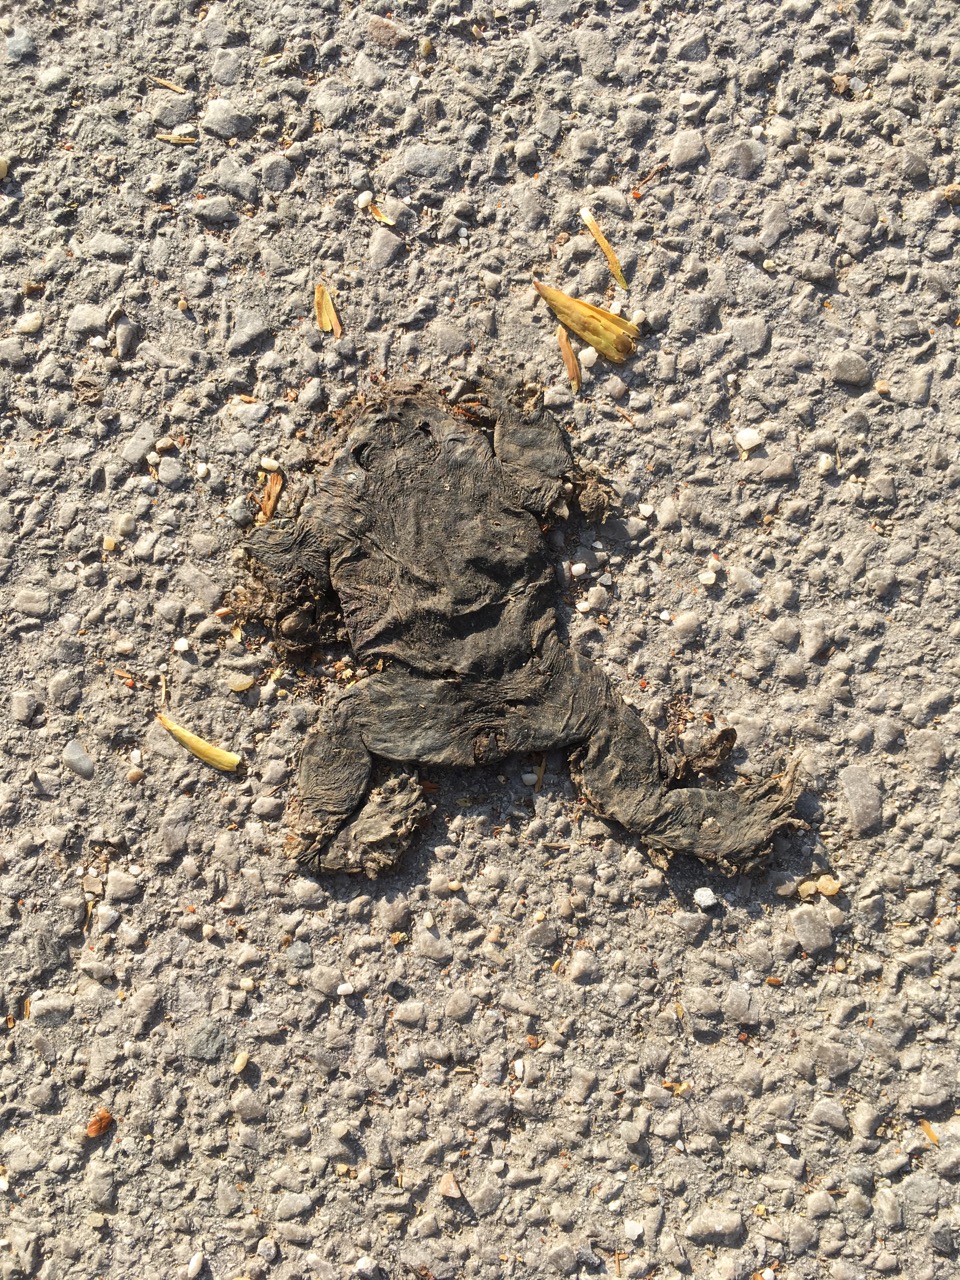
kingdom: Animalia
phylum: Chordata
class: Amphibia
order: Anura
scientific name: Anura
